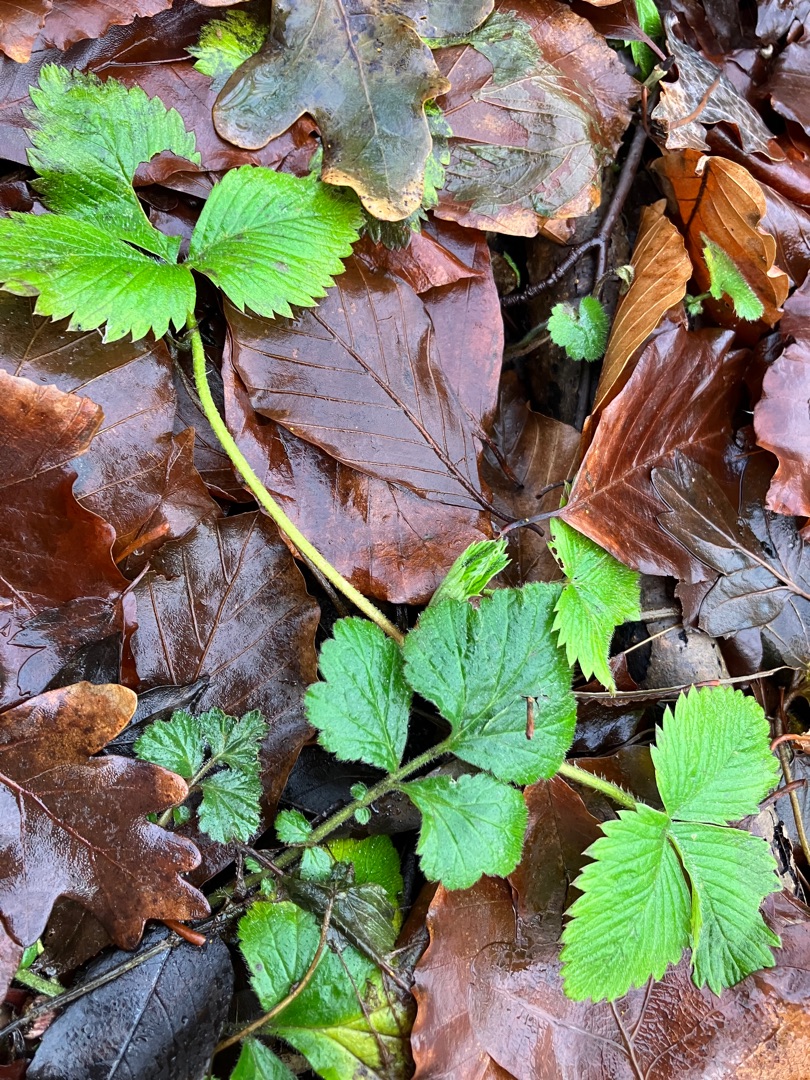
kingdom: Plantae
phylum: Tracheophyta
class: Magnoliopsida
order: Rosales
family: Rosaceae
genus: Fragaria
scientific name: Fragaria vesca
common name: Skov-jordbær
